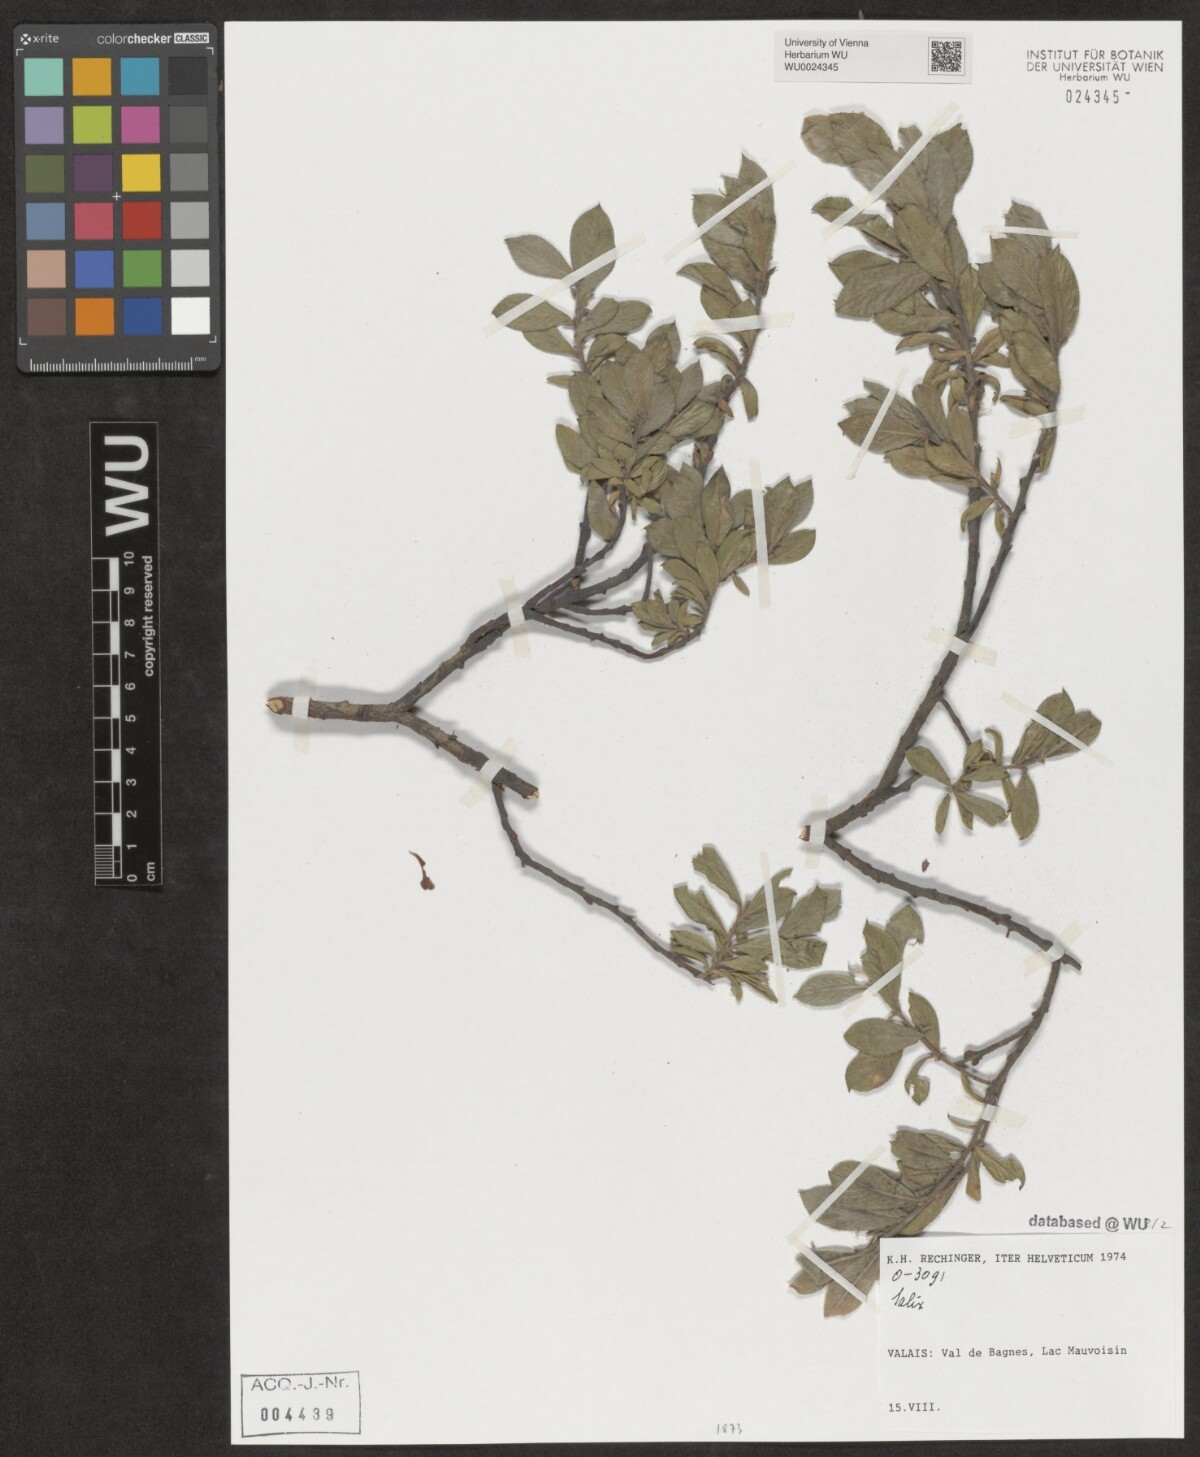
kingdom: Plantae
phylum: Tracheophyta
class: Magnoliopsida
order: Malpighiales
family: Salicaceae
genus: Salix
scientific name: Salix
